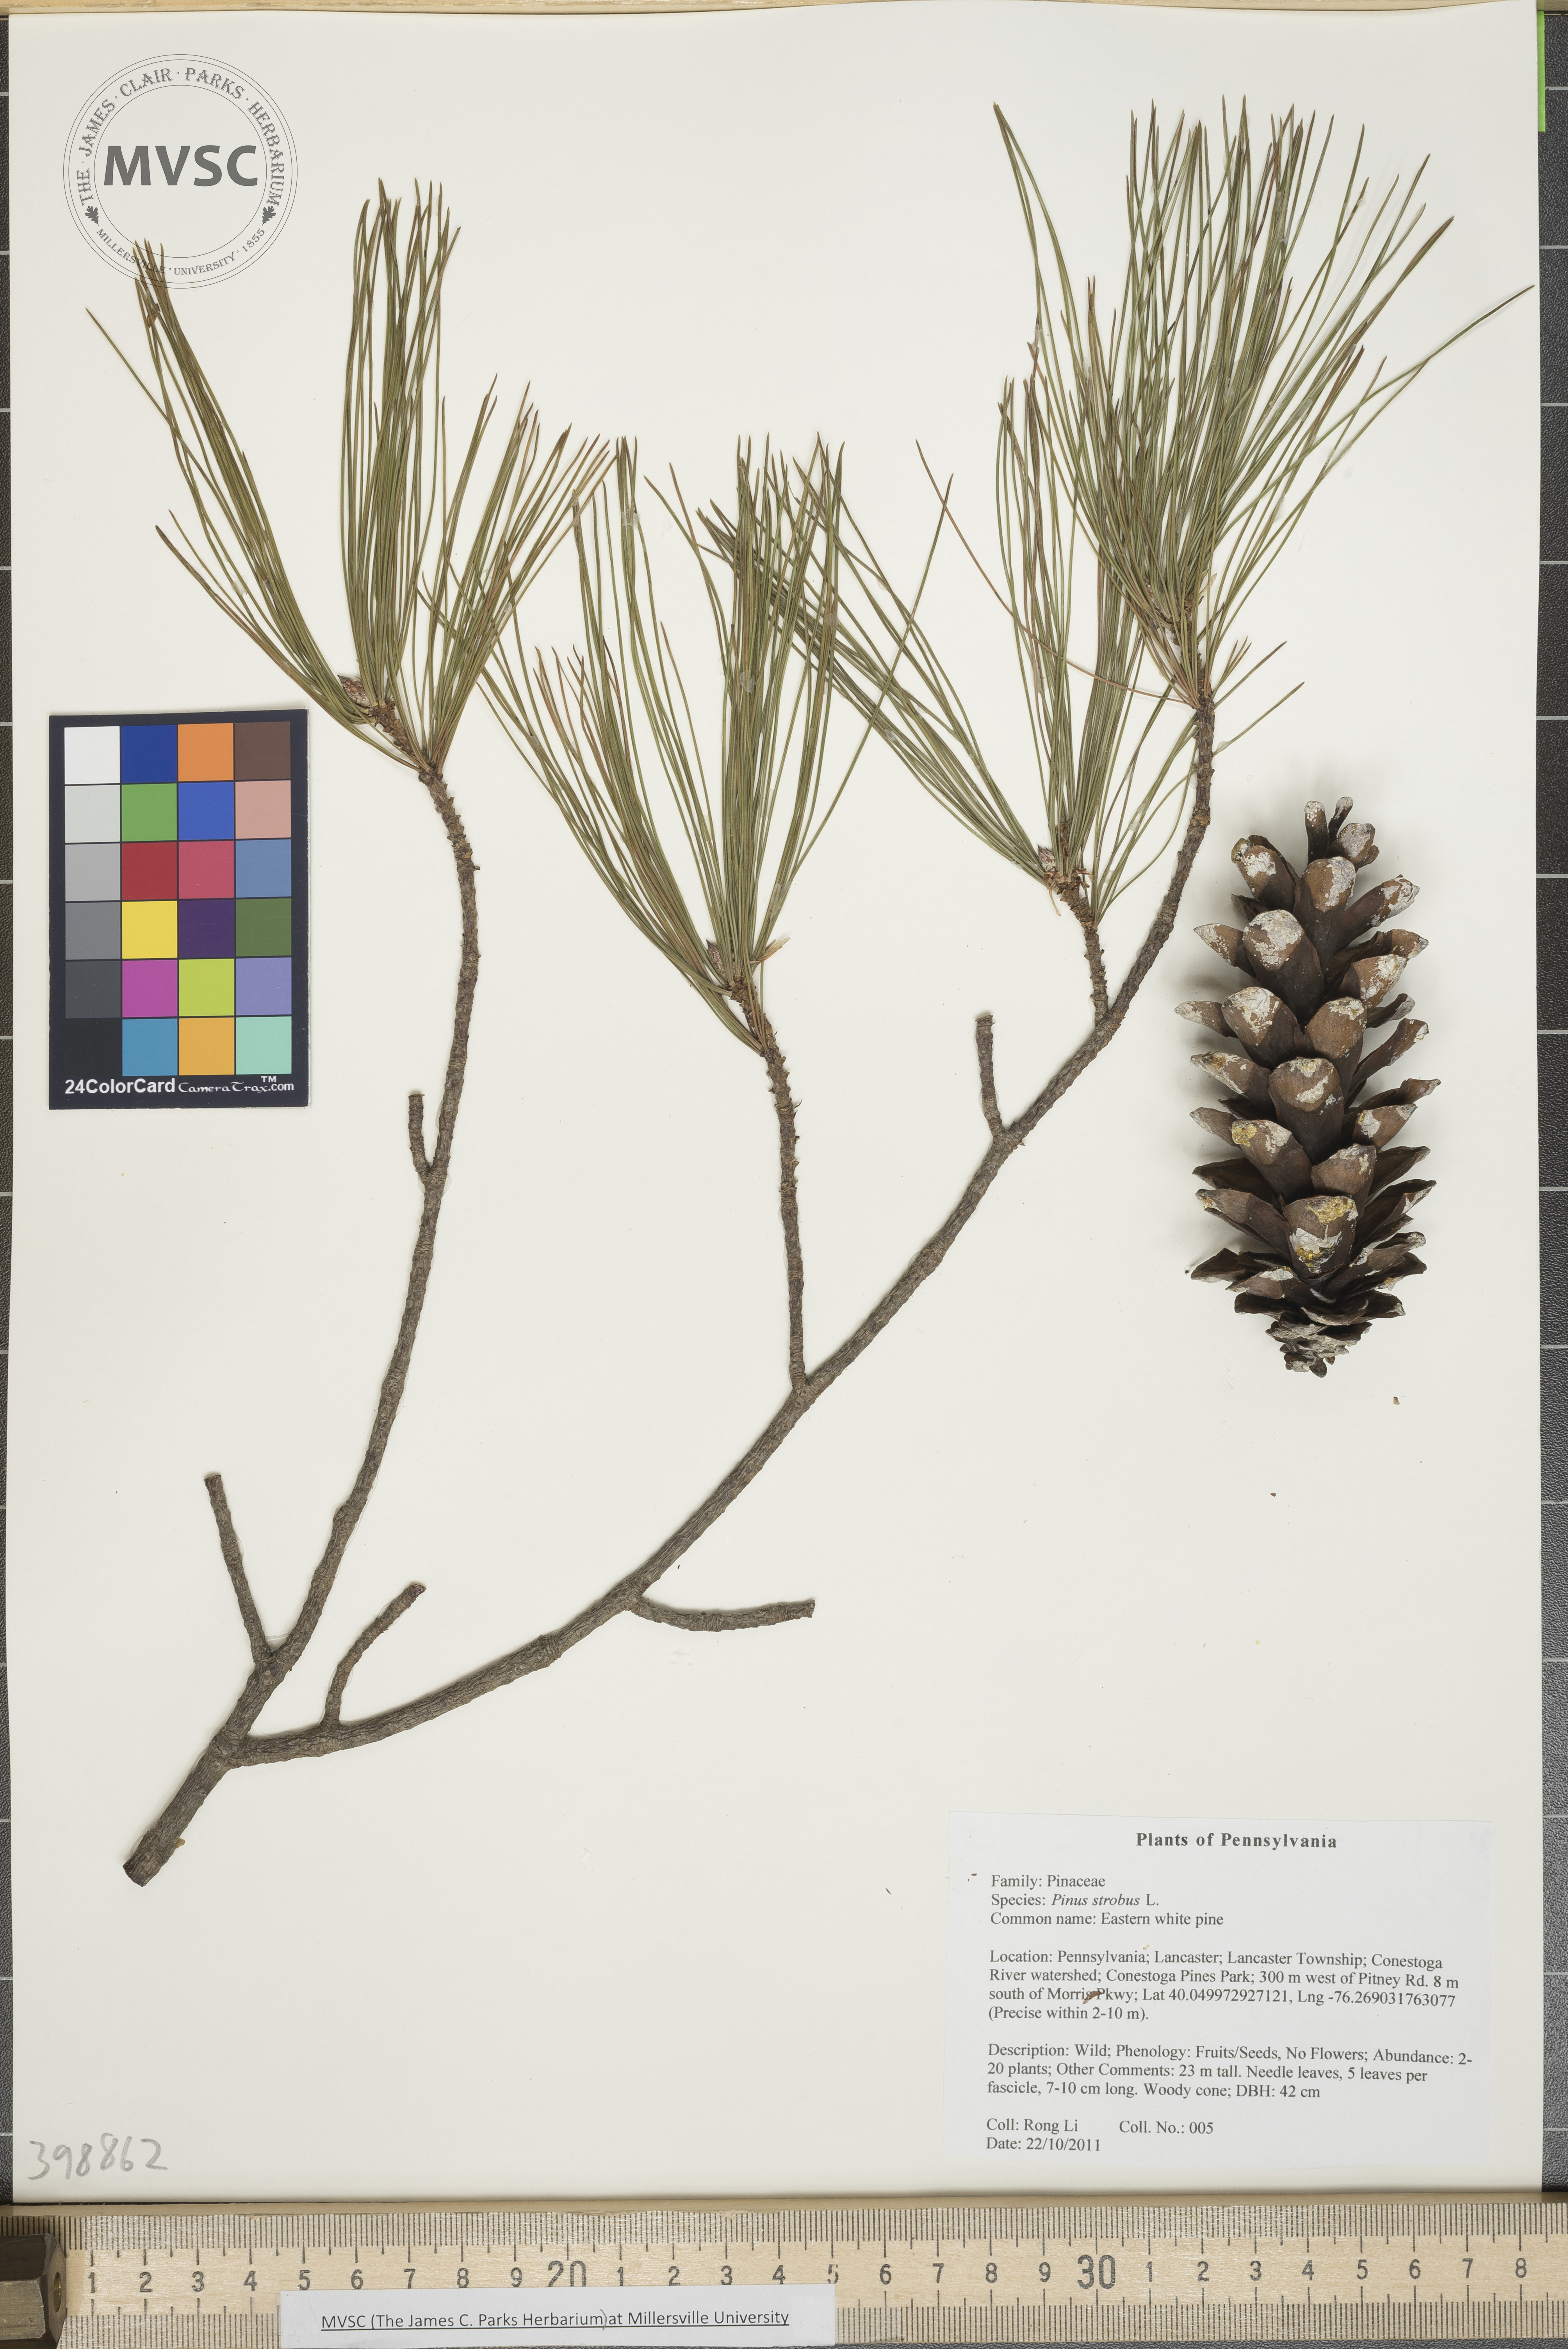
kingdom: Plantae
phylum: Tracheophyta
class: Pinopsida
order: Pinales
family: Pinaceae
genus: Pinus
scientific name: Pinus strobus
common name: Eastern white pine
